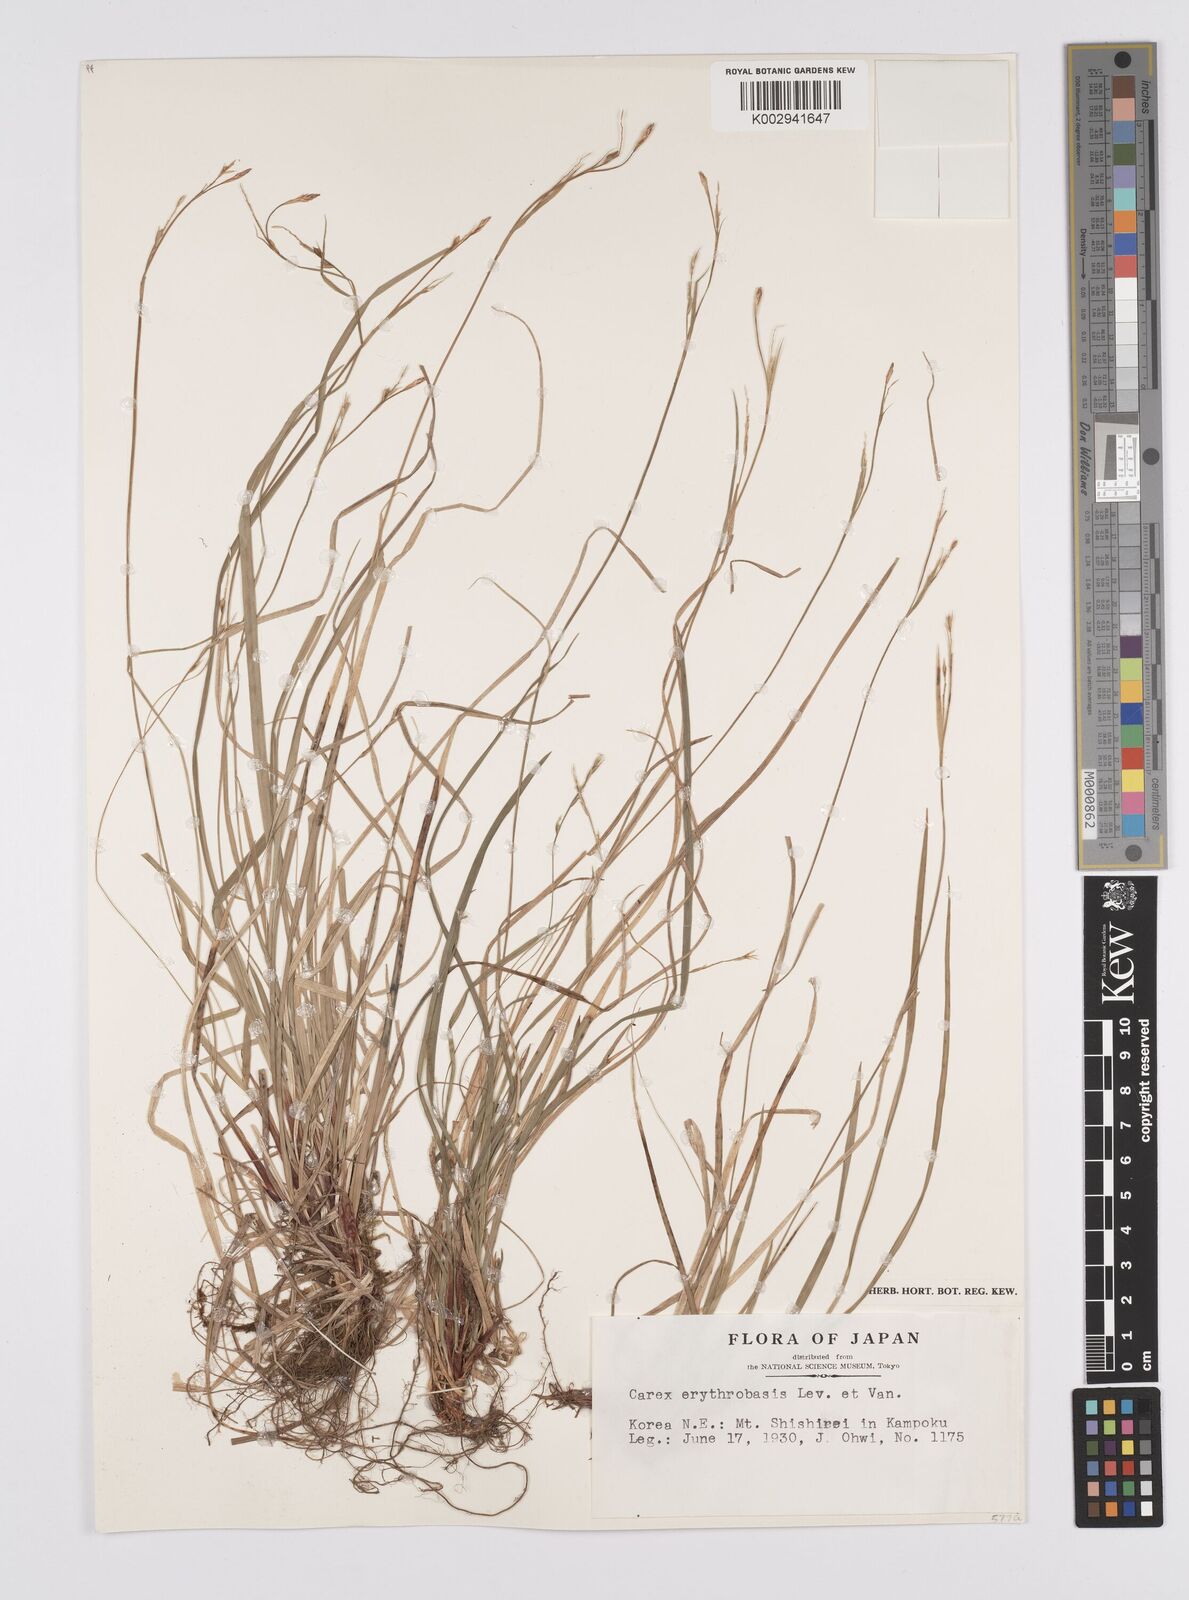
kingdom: Plantae
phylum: Tracheophyta
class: Liliopsida
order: Poales
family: Cyperaceae
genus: Carex
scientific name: Carex erythrobasis
